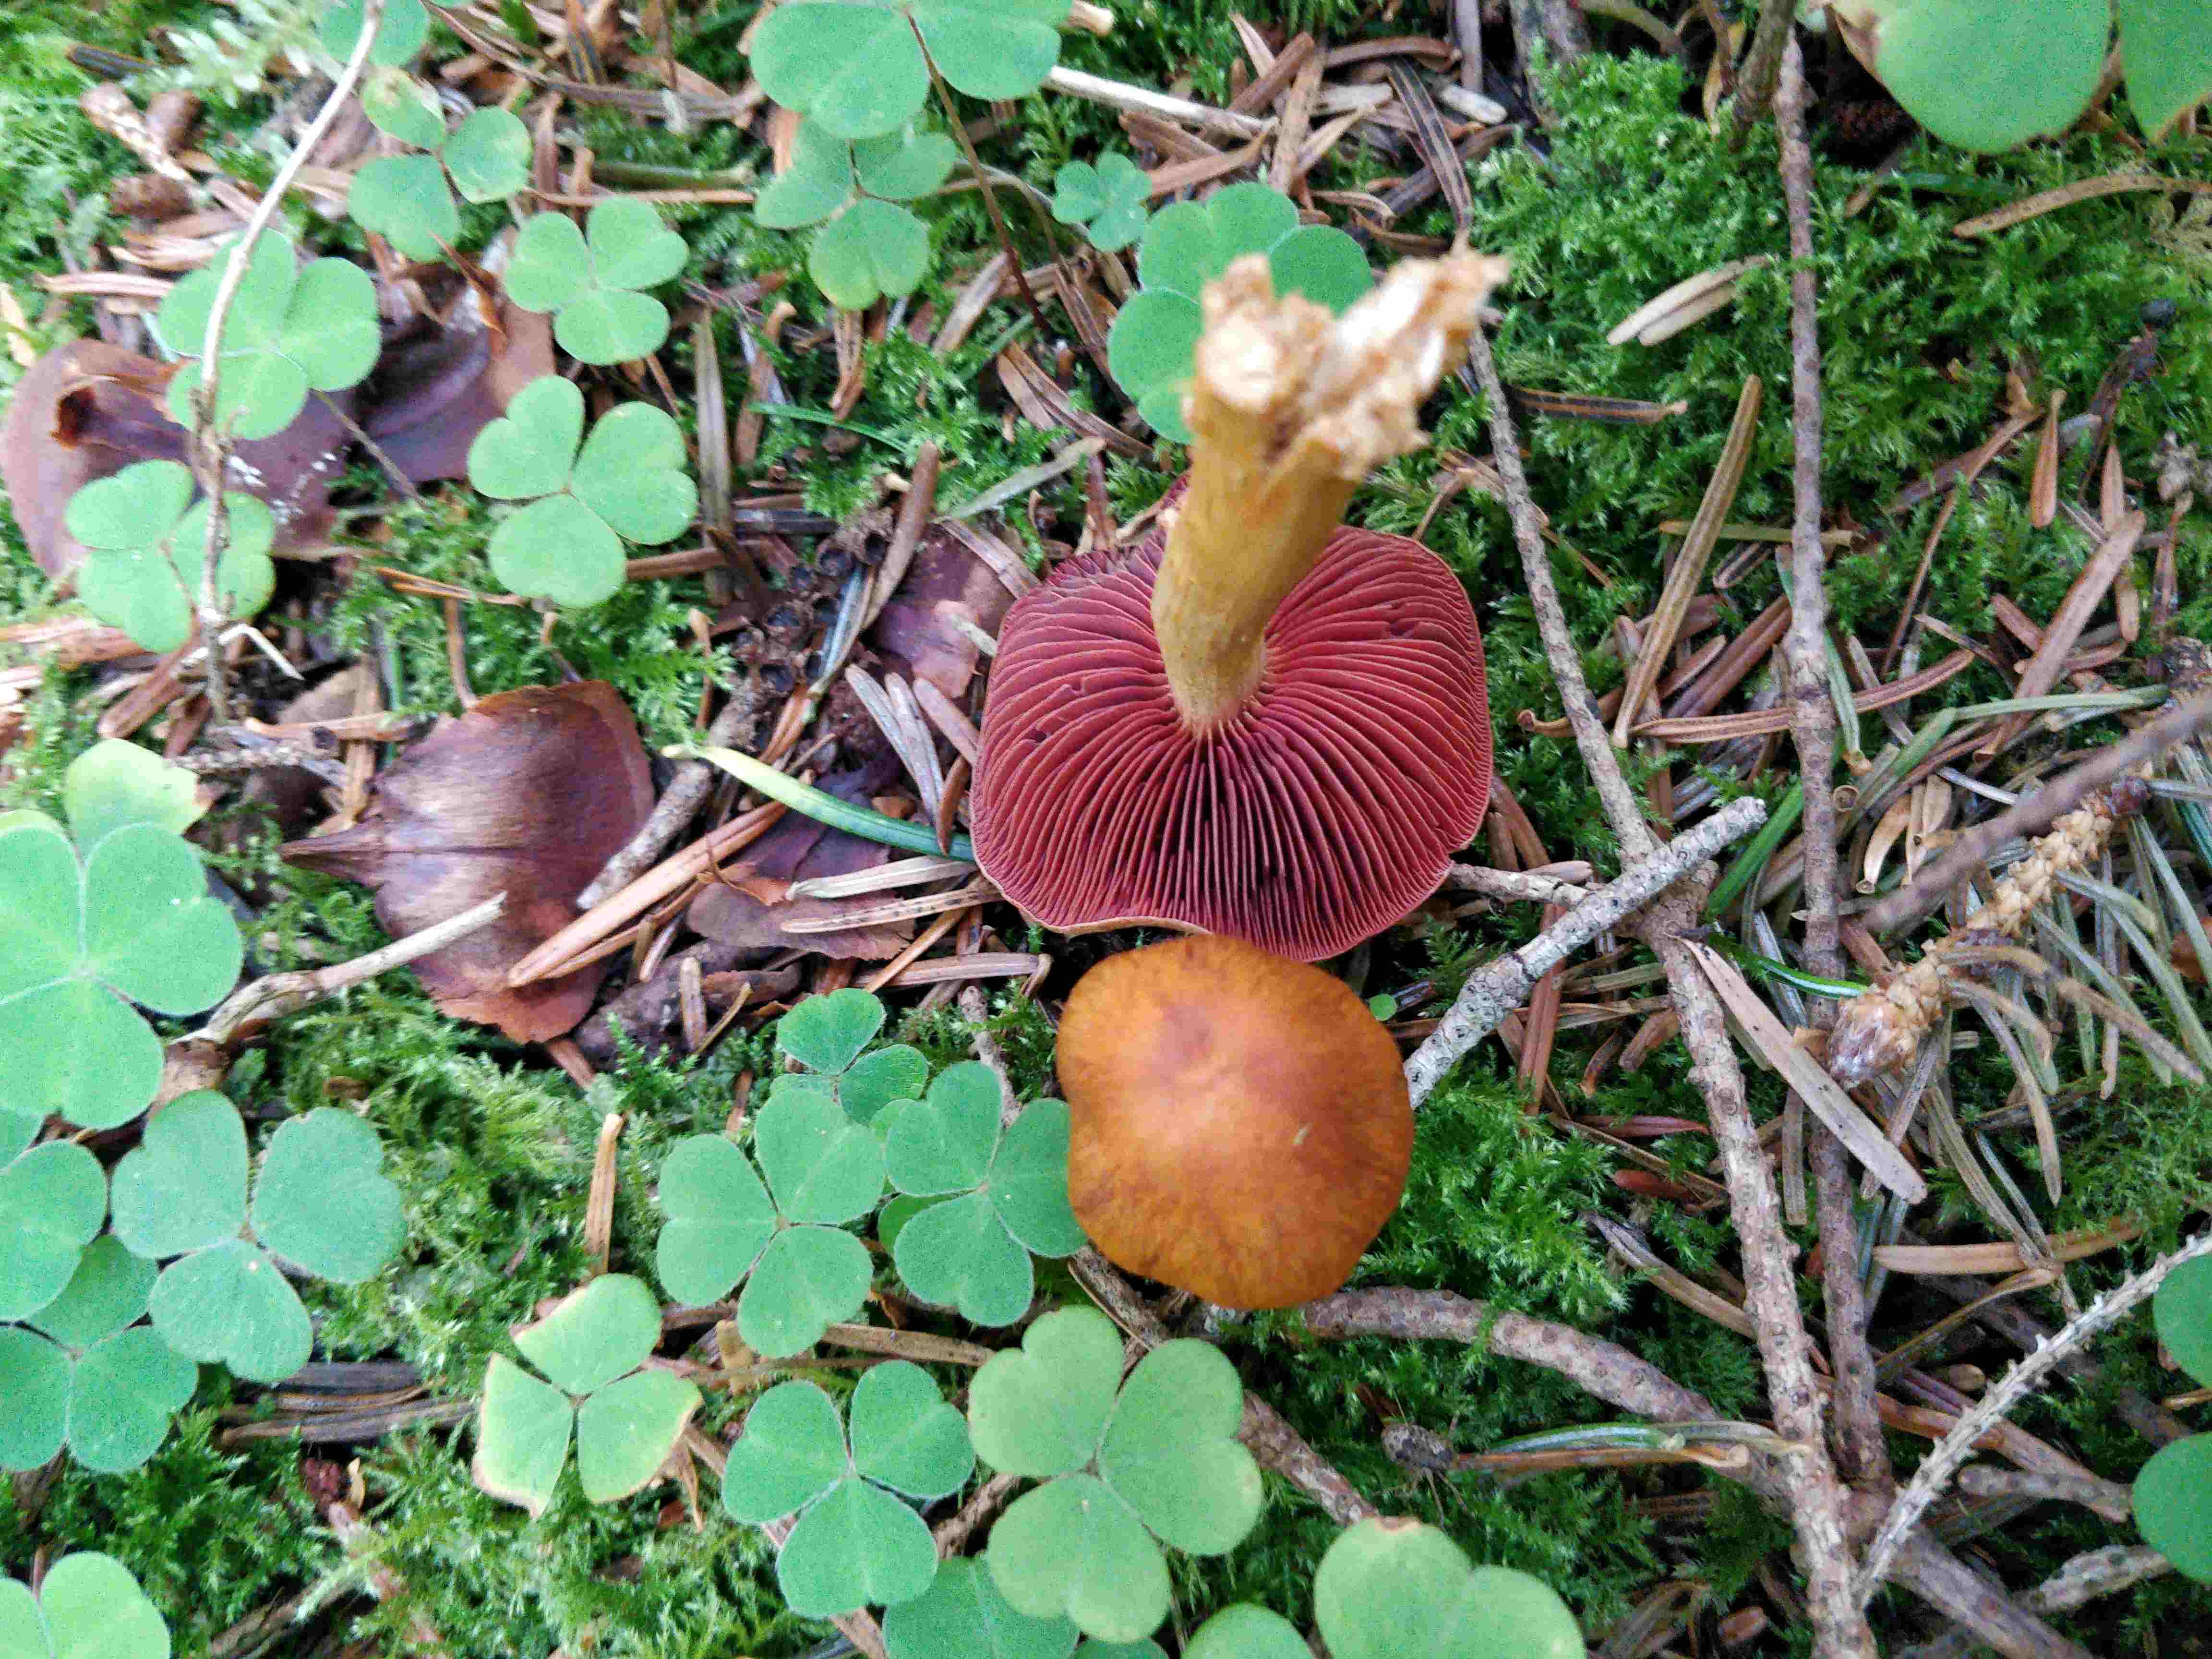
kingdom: Fungi
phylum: Basidiomycota
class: Agaricomycetes
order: Agaricales
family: Cortinariaceae
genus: Cortinarius
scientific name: Cortinarius
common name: cinnoberbladet slørhat
